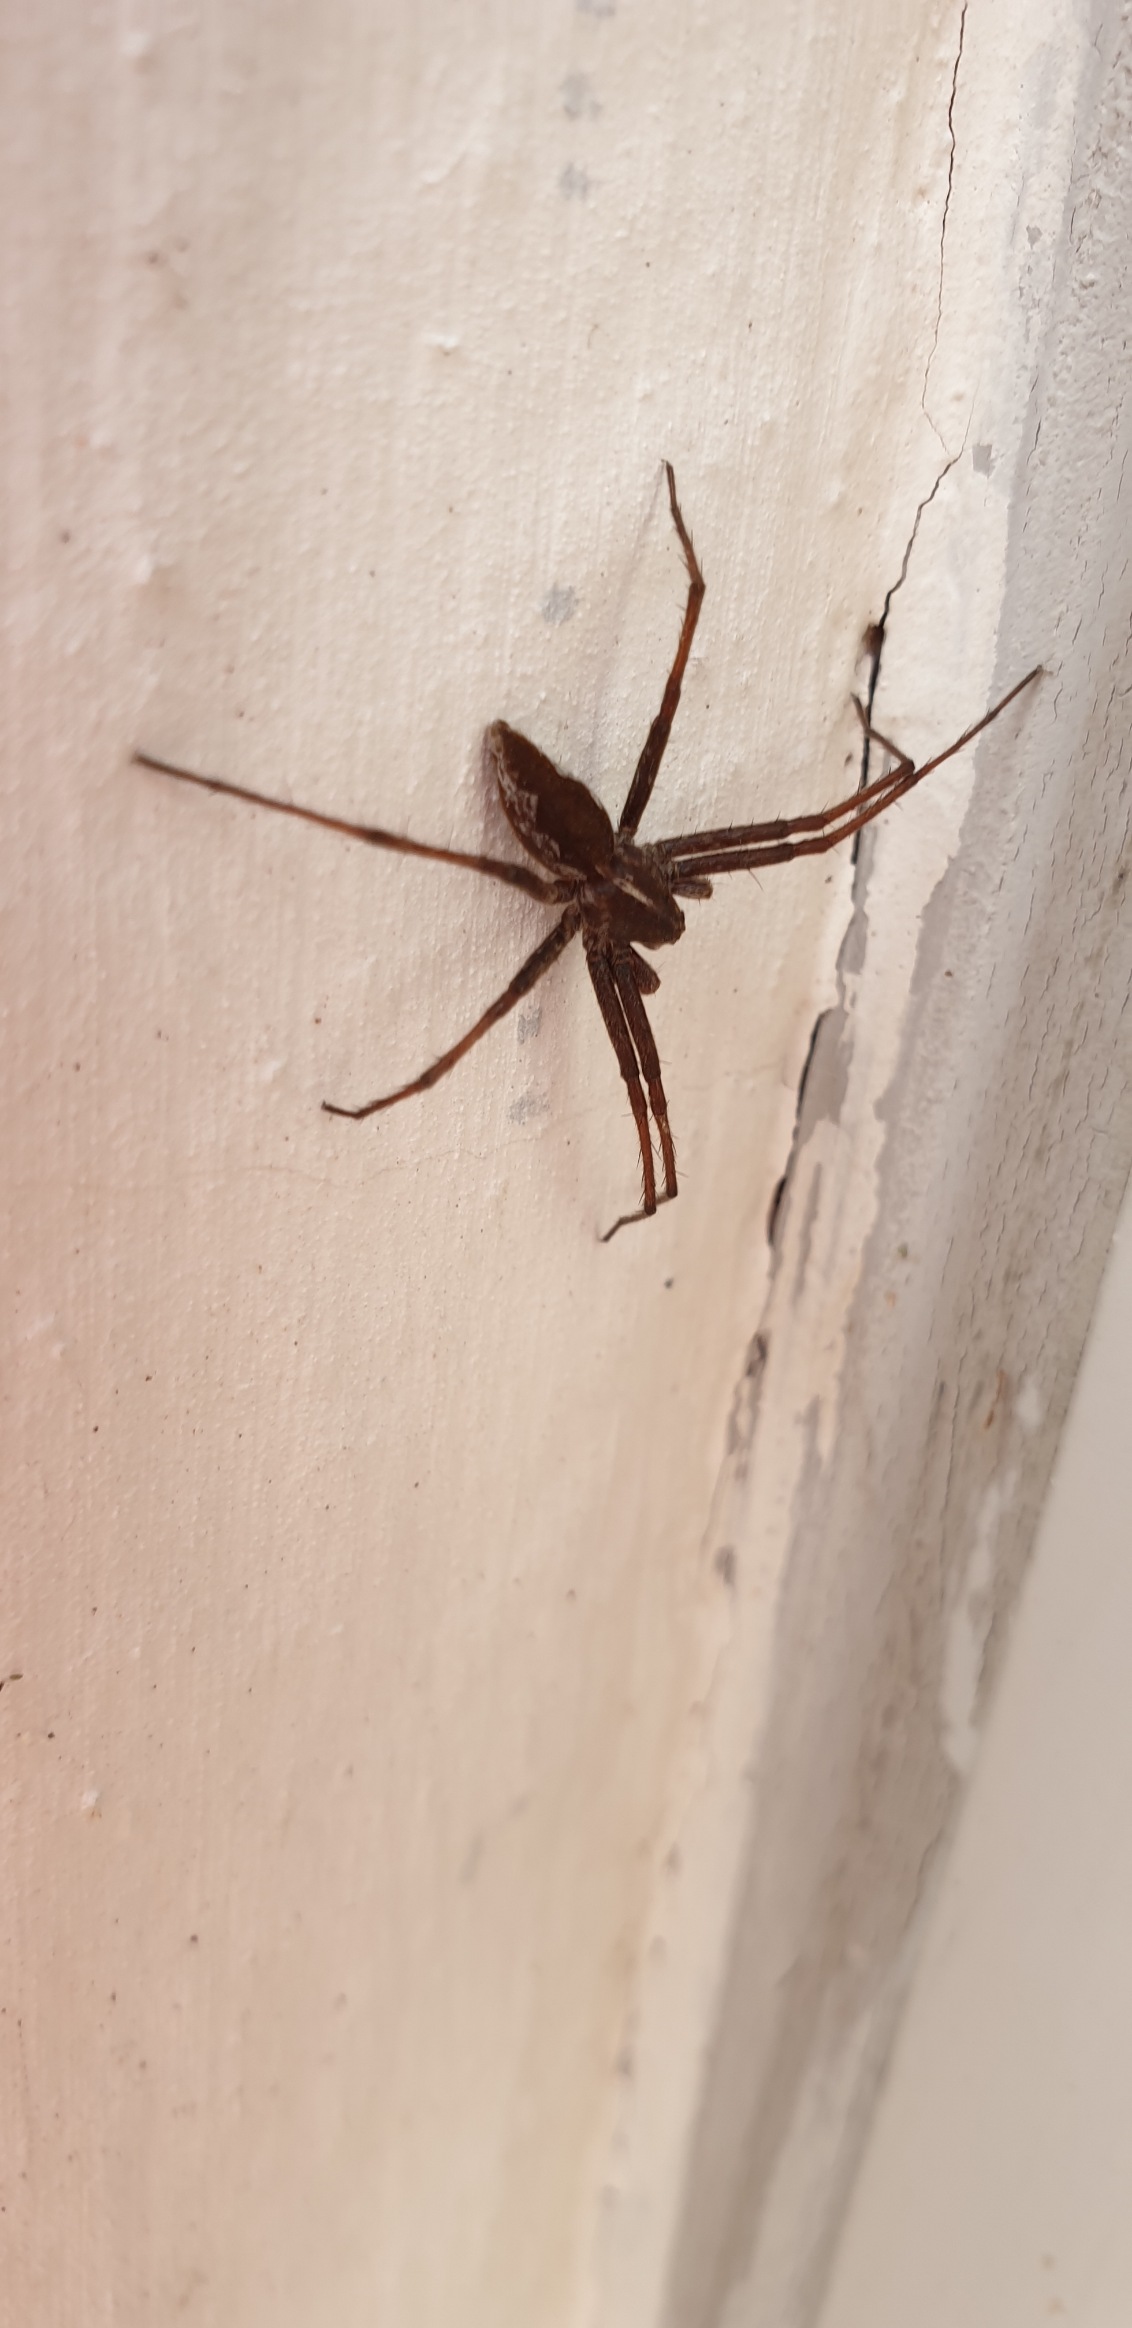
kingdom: Animalia
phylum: Arthropoda
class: Arachnida
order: Araneae
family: Pisauridae
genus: Pisaura
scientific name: Pisaura mirabilis
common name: Almindelig rovedderkop
